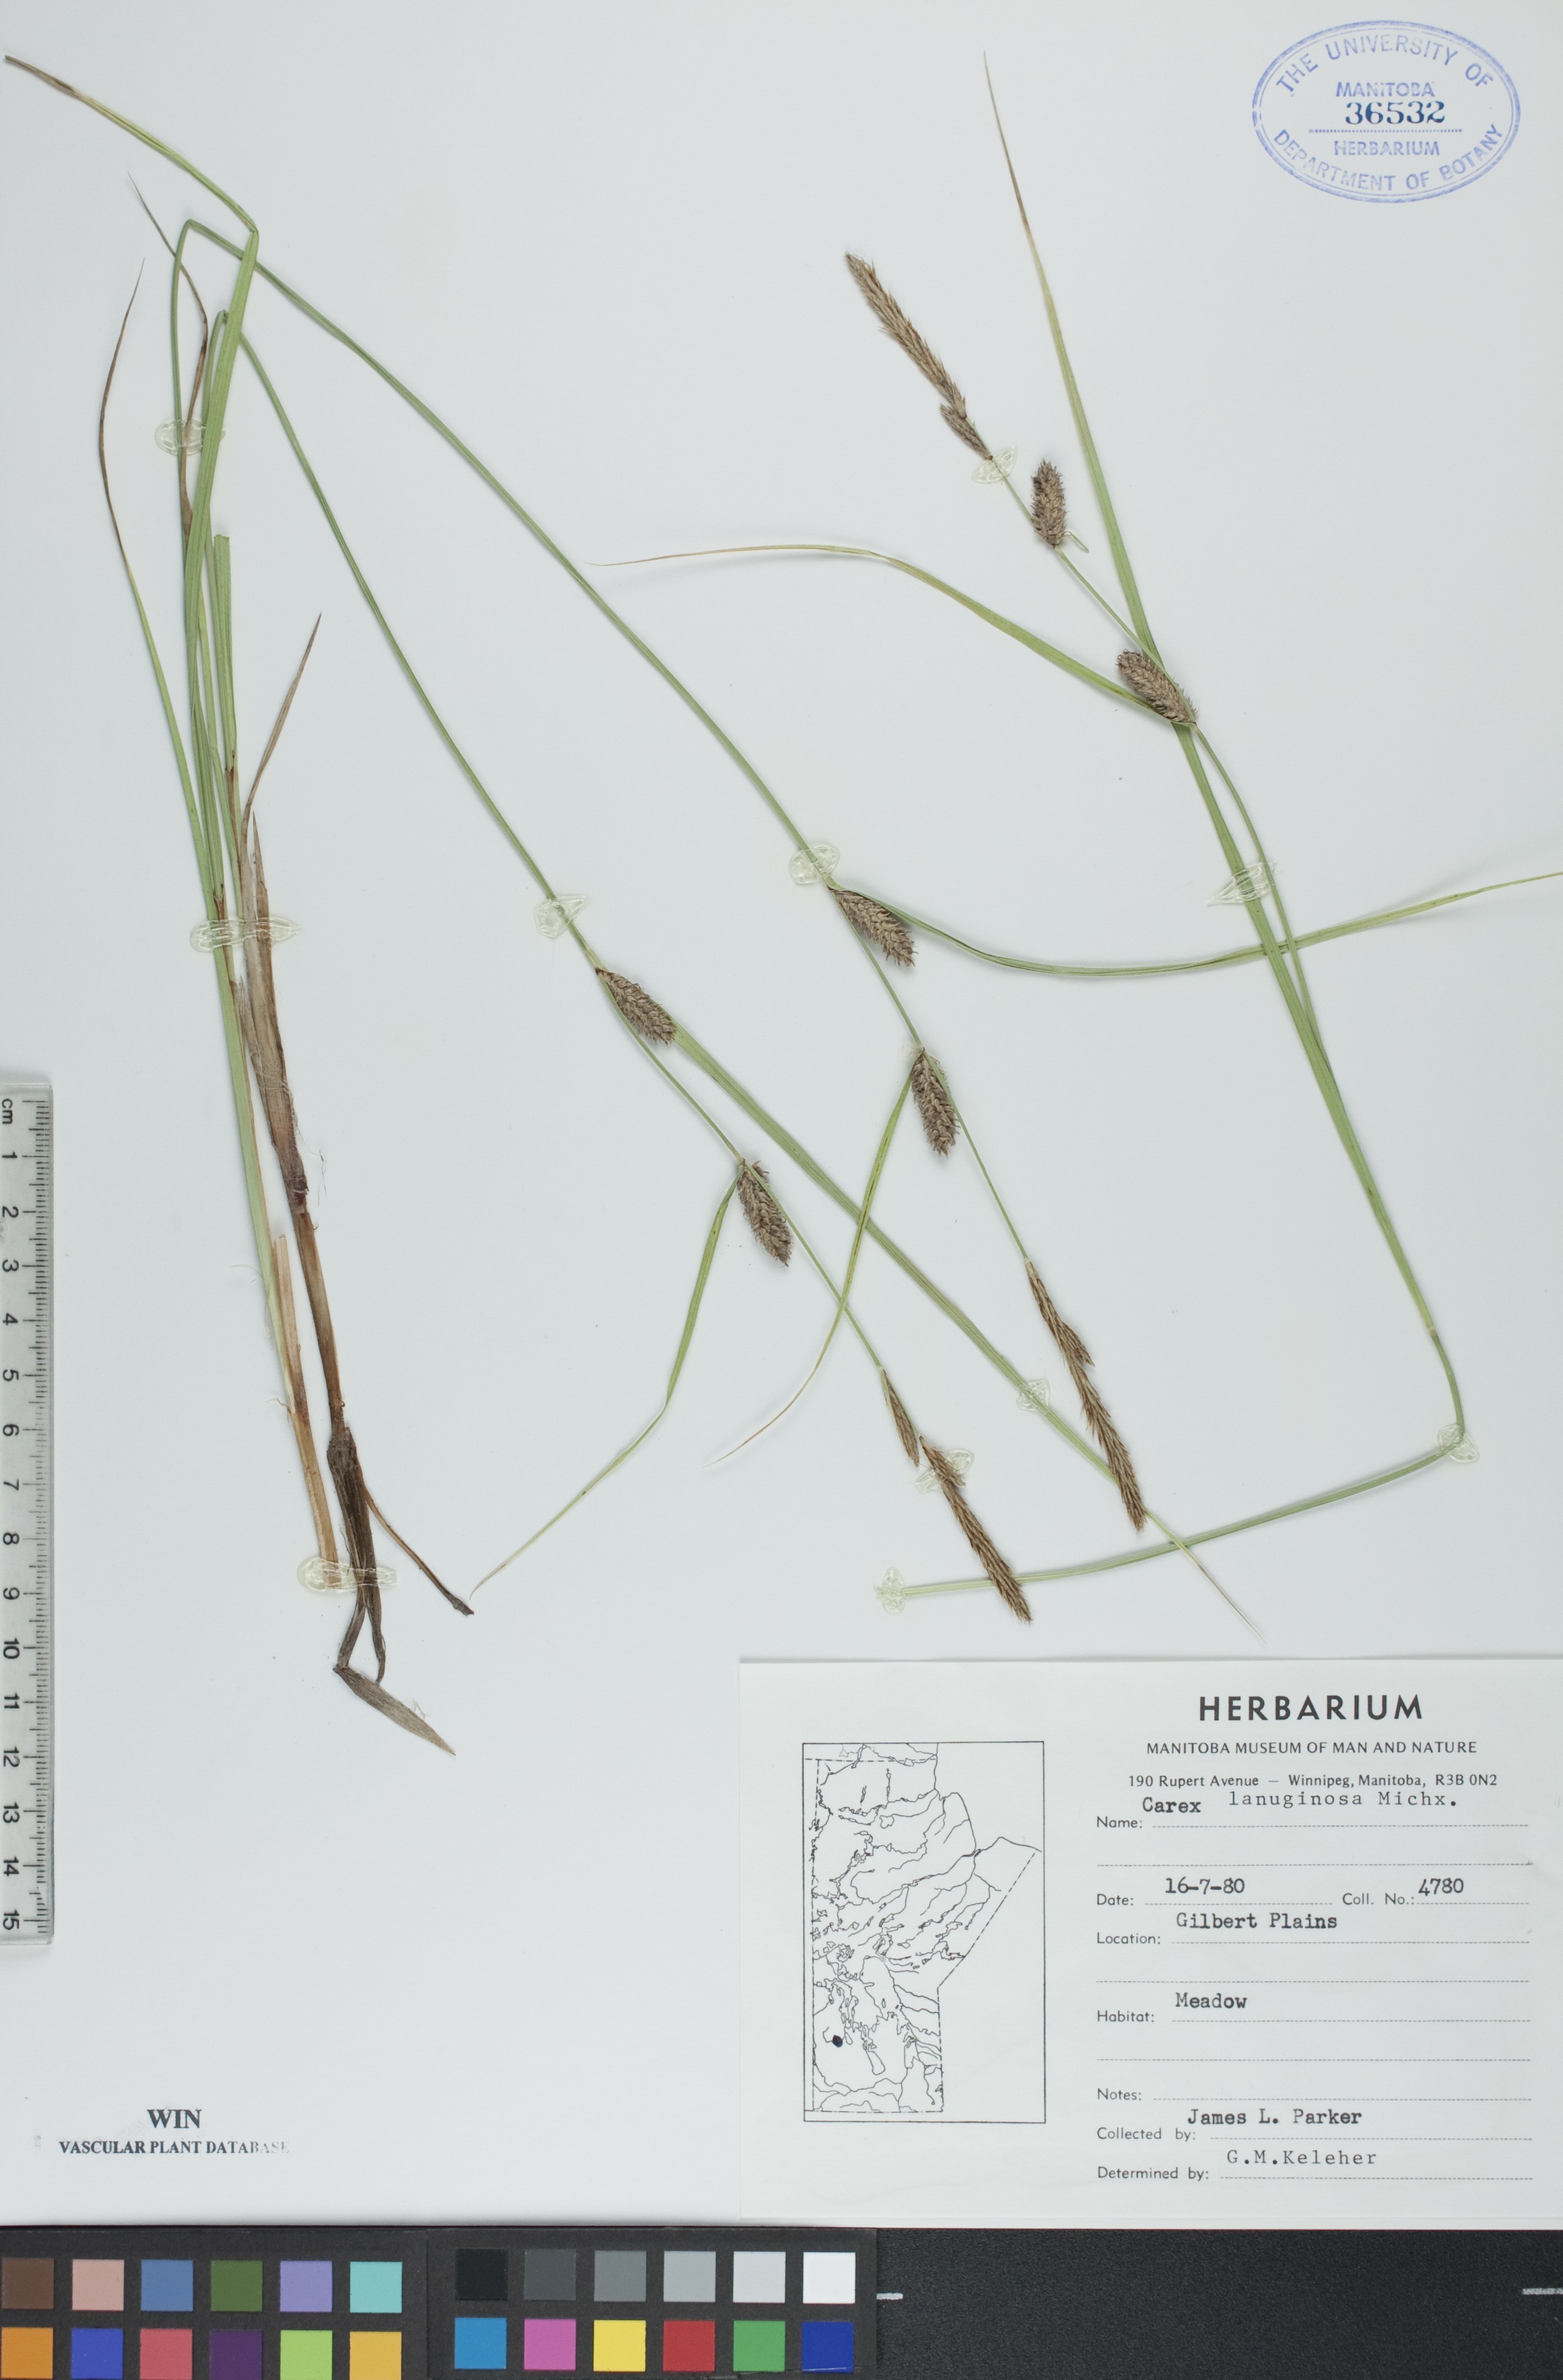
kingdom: Plantae
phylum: Tracheophyta
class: Liliopsida
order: Poales
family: Cyperaceae
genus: Carex
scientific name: Carex lasiocarpa
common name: Slender sedge
